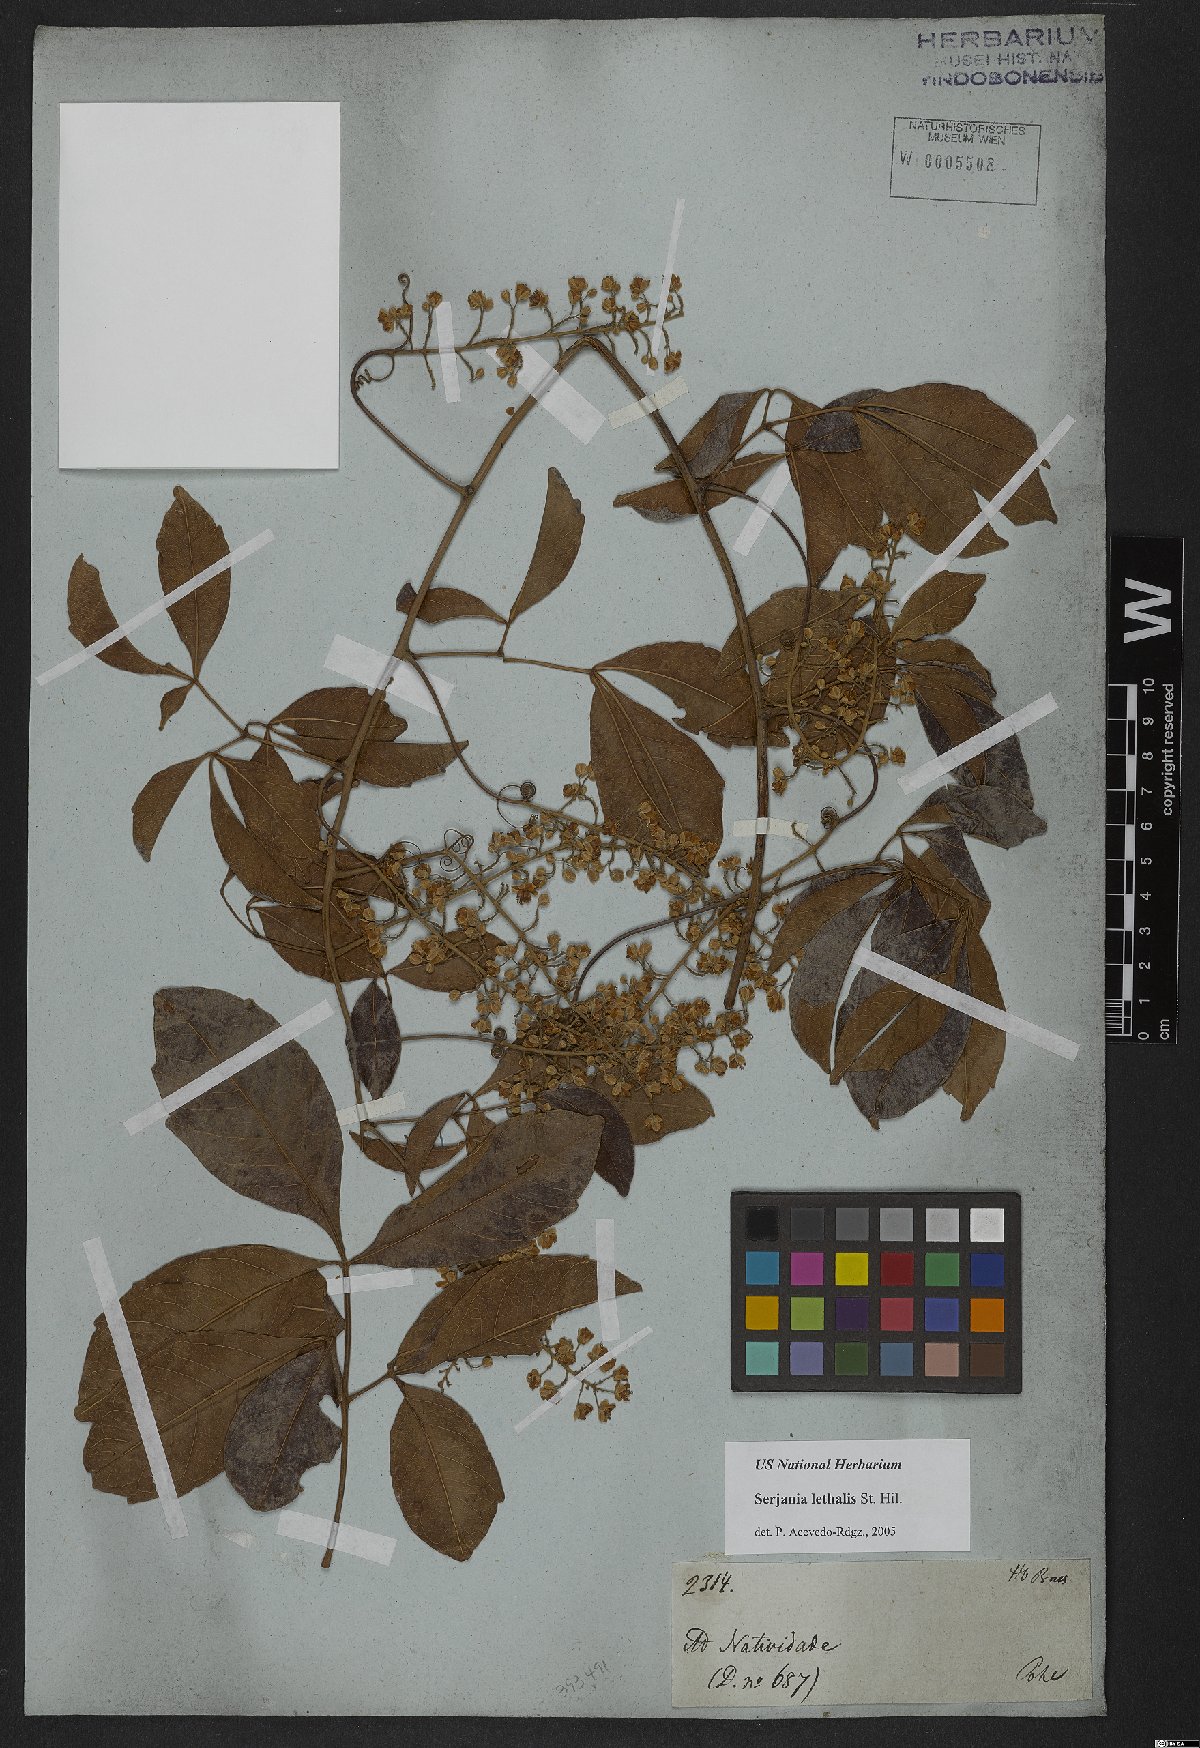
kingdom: Plantae
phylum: Tracheophyta
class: Magnoliopsida
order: Sapindales
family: Sapindaceae
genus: Serjania
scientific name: Serjania lethalis
